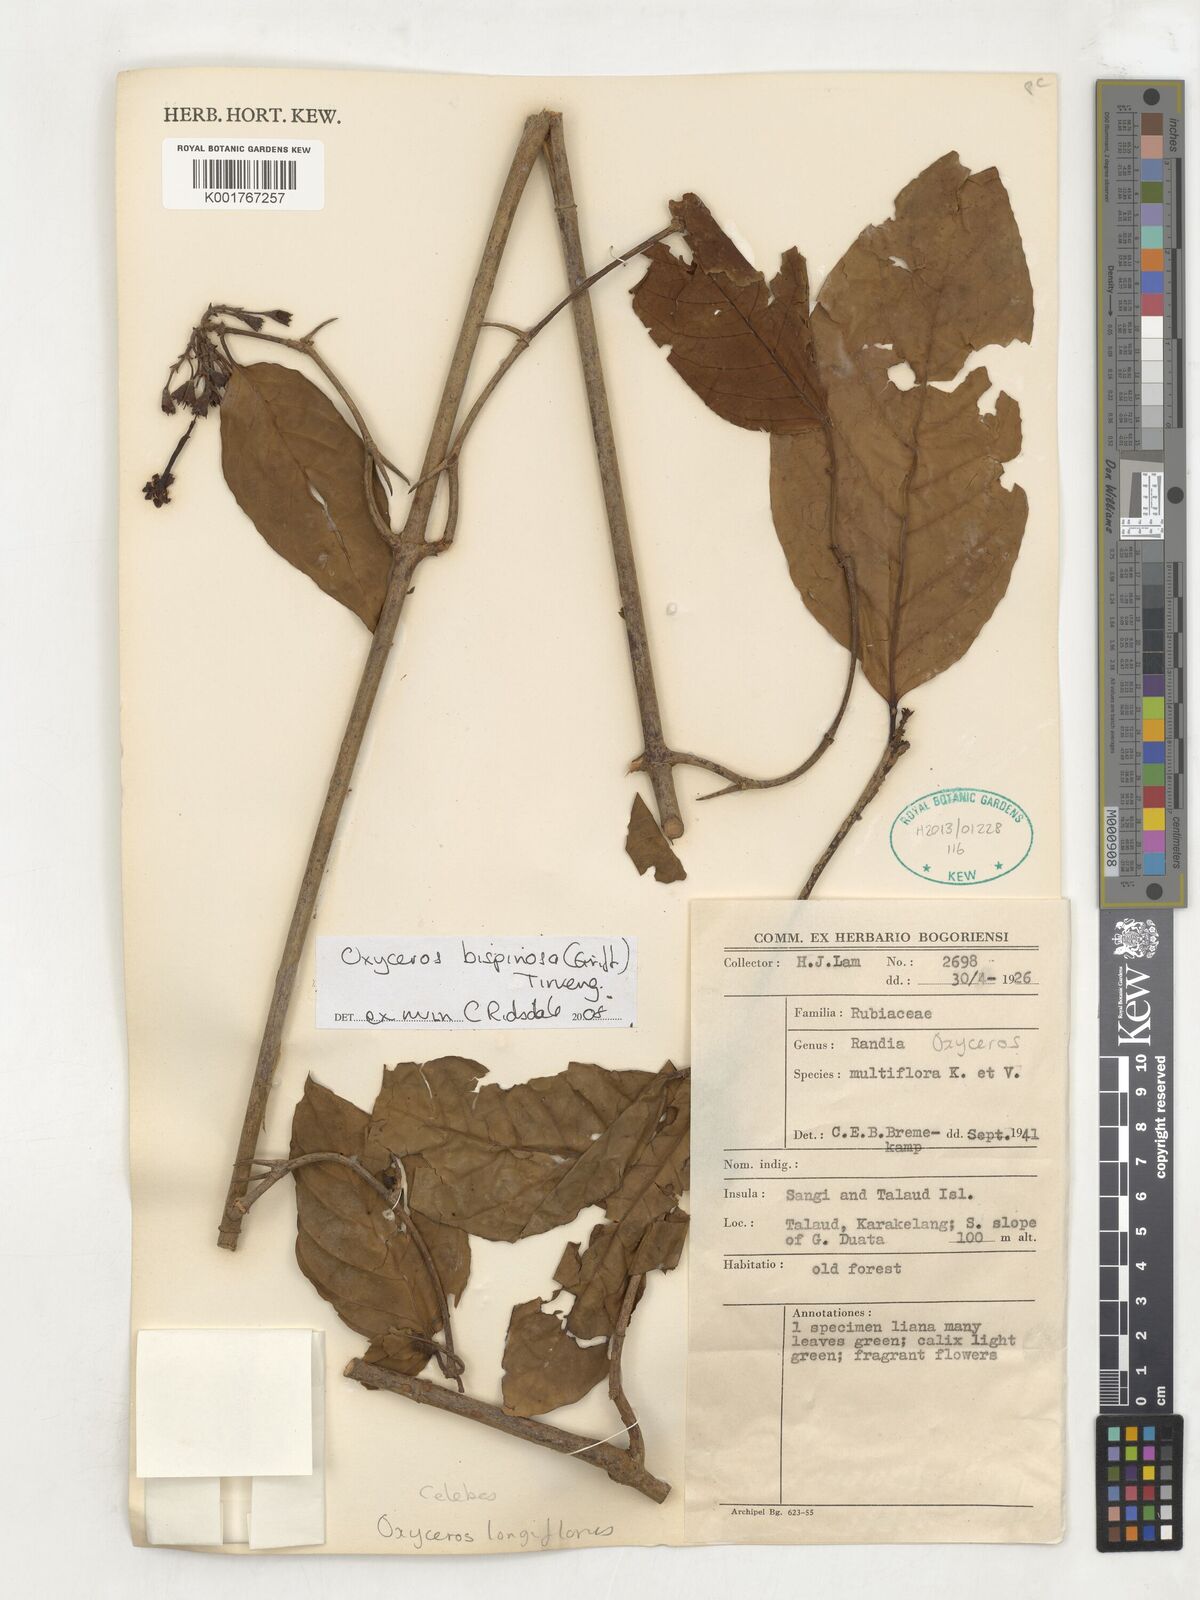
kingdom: Plantae
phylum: Tracheophyta
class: Magnoliopsida
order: Gentianales
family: Rubiaceae
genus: Oxyceros
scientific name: Oxyceros bispinosus
